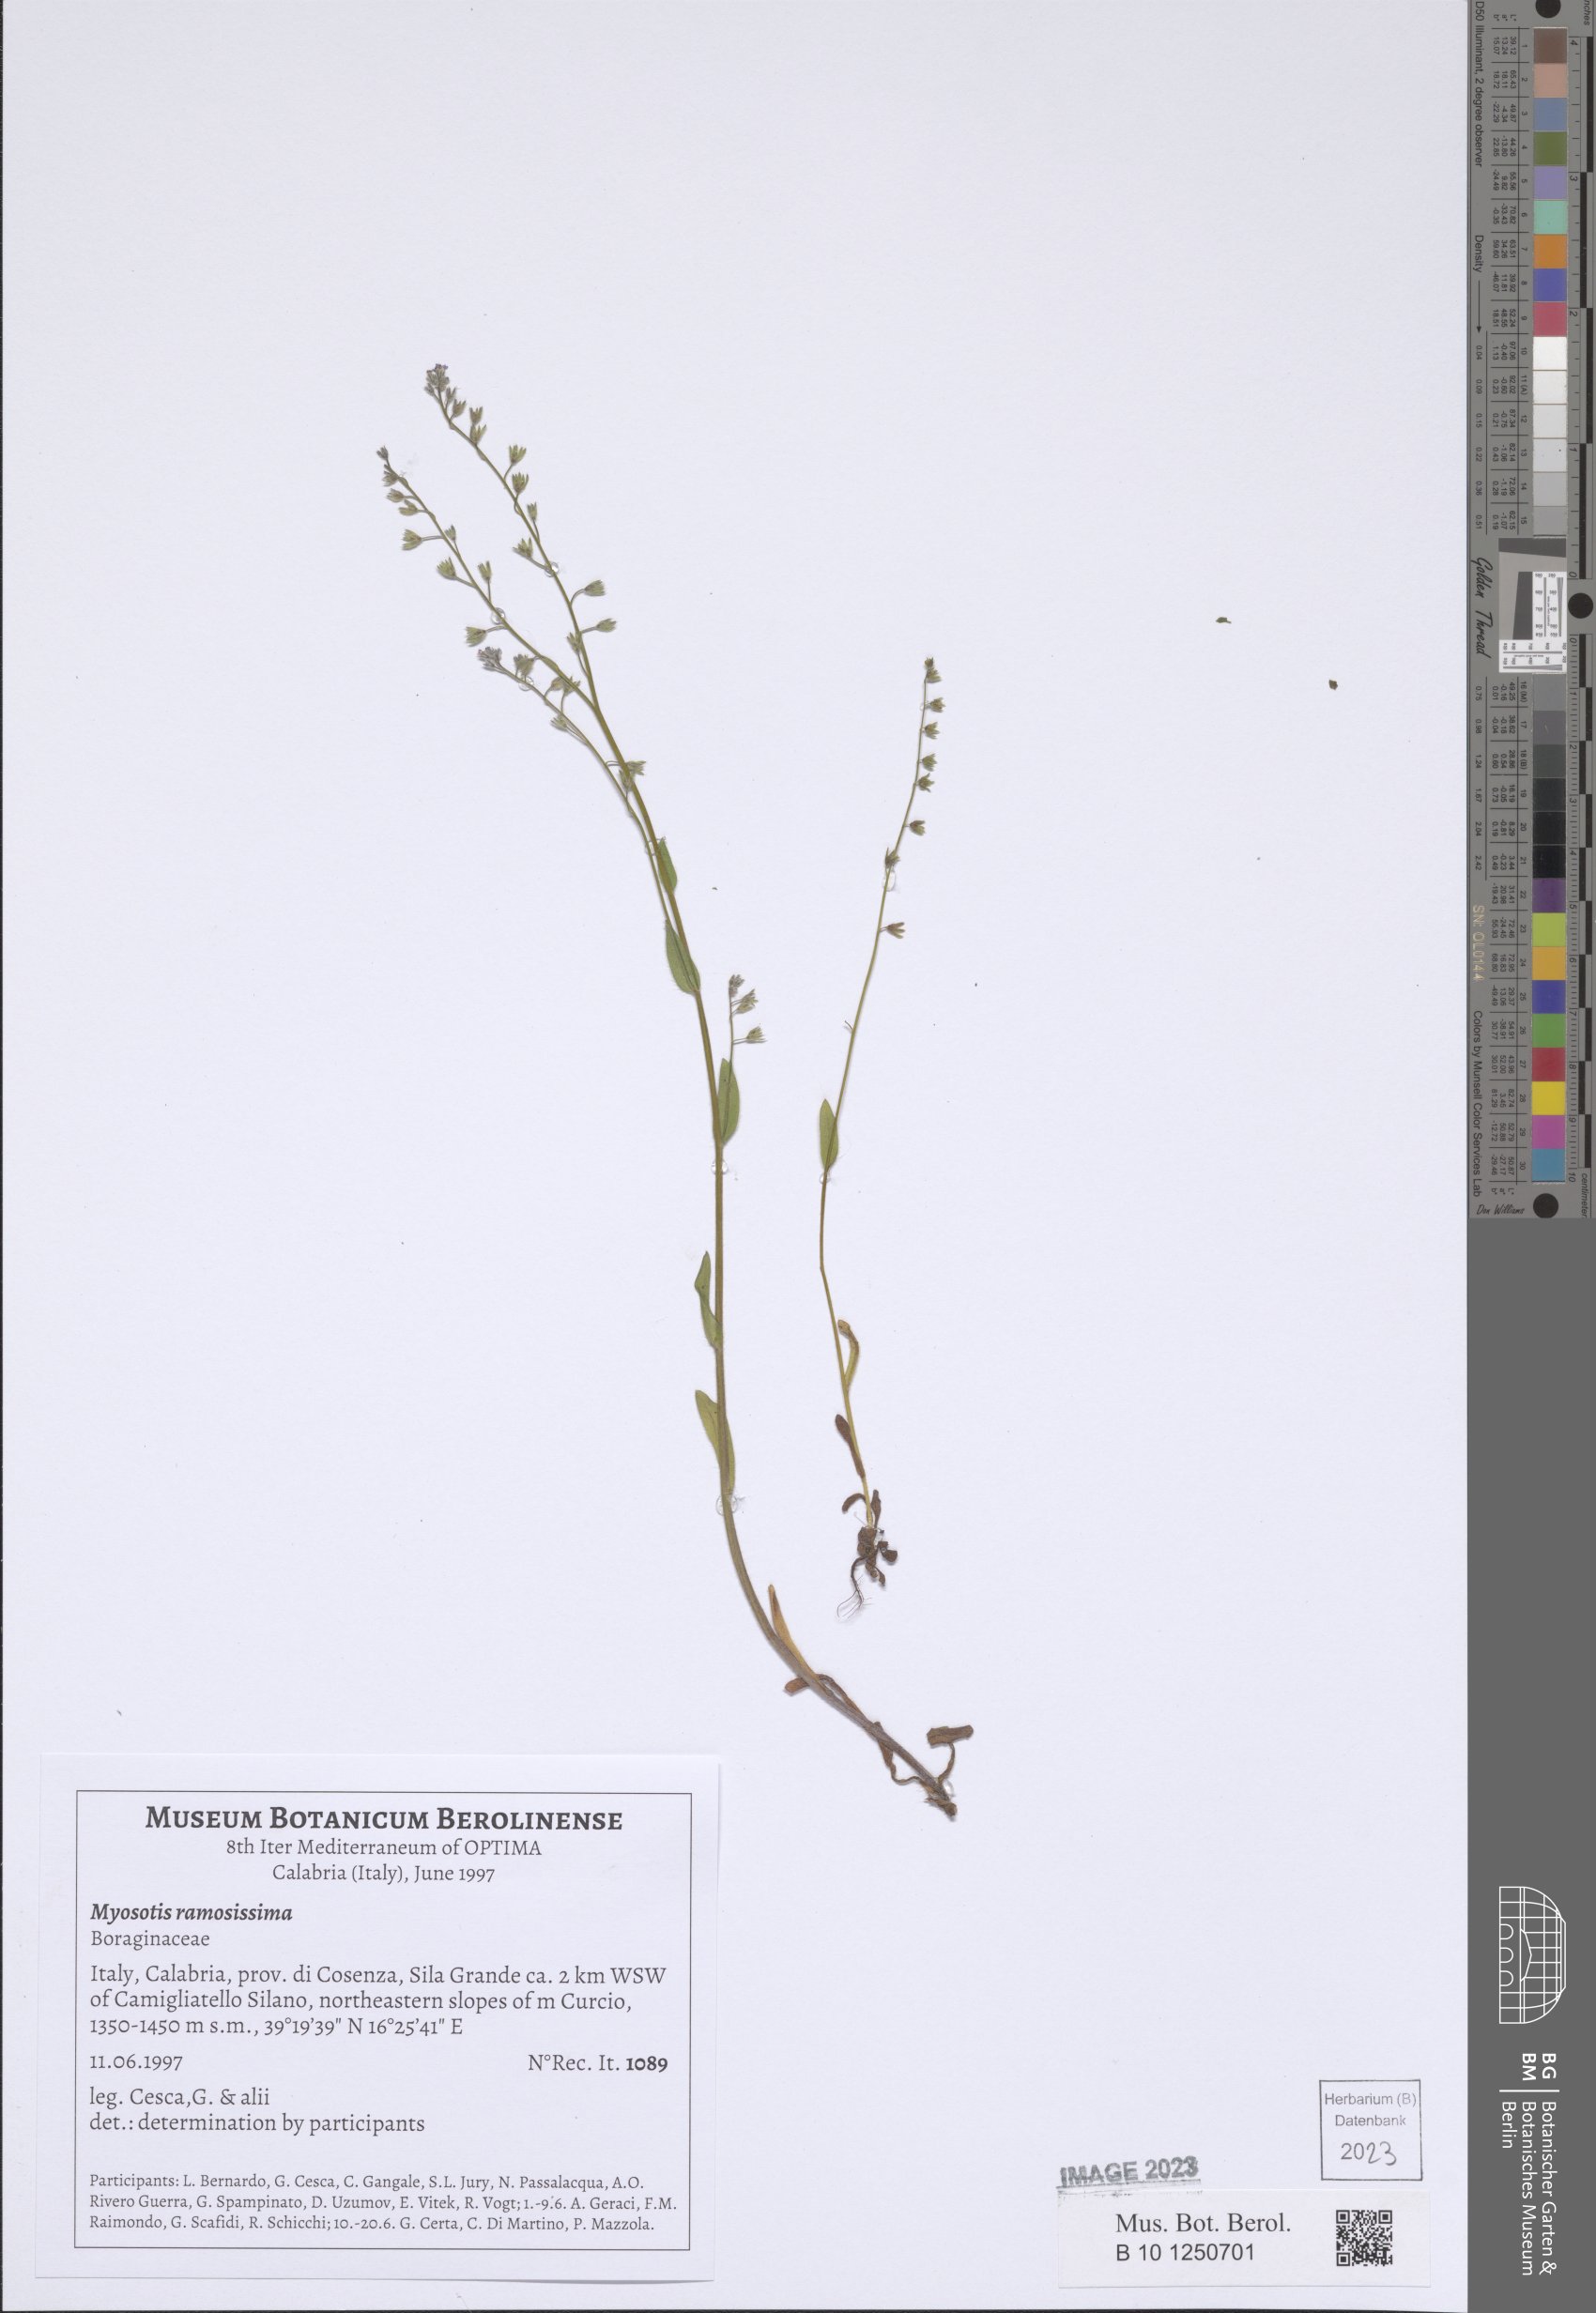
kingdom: Plantae
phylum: Tracheophyta
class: Magnoliopsida
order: Boraginales
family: Boraginaceae
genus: Myosotis
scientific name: Myosotis ramosissima
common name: Early forget-me-not
